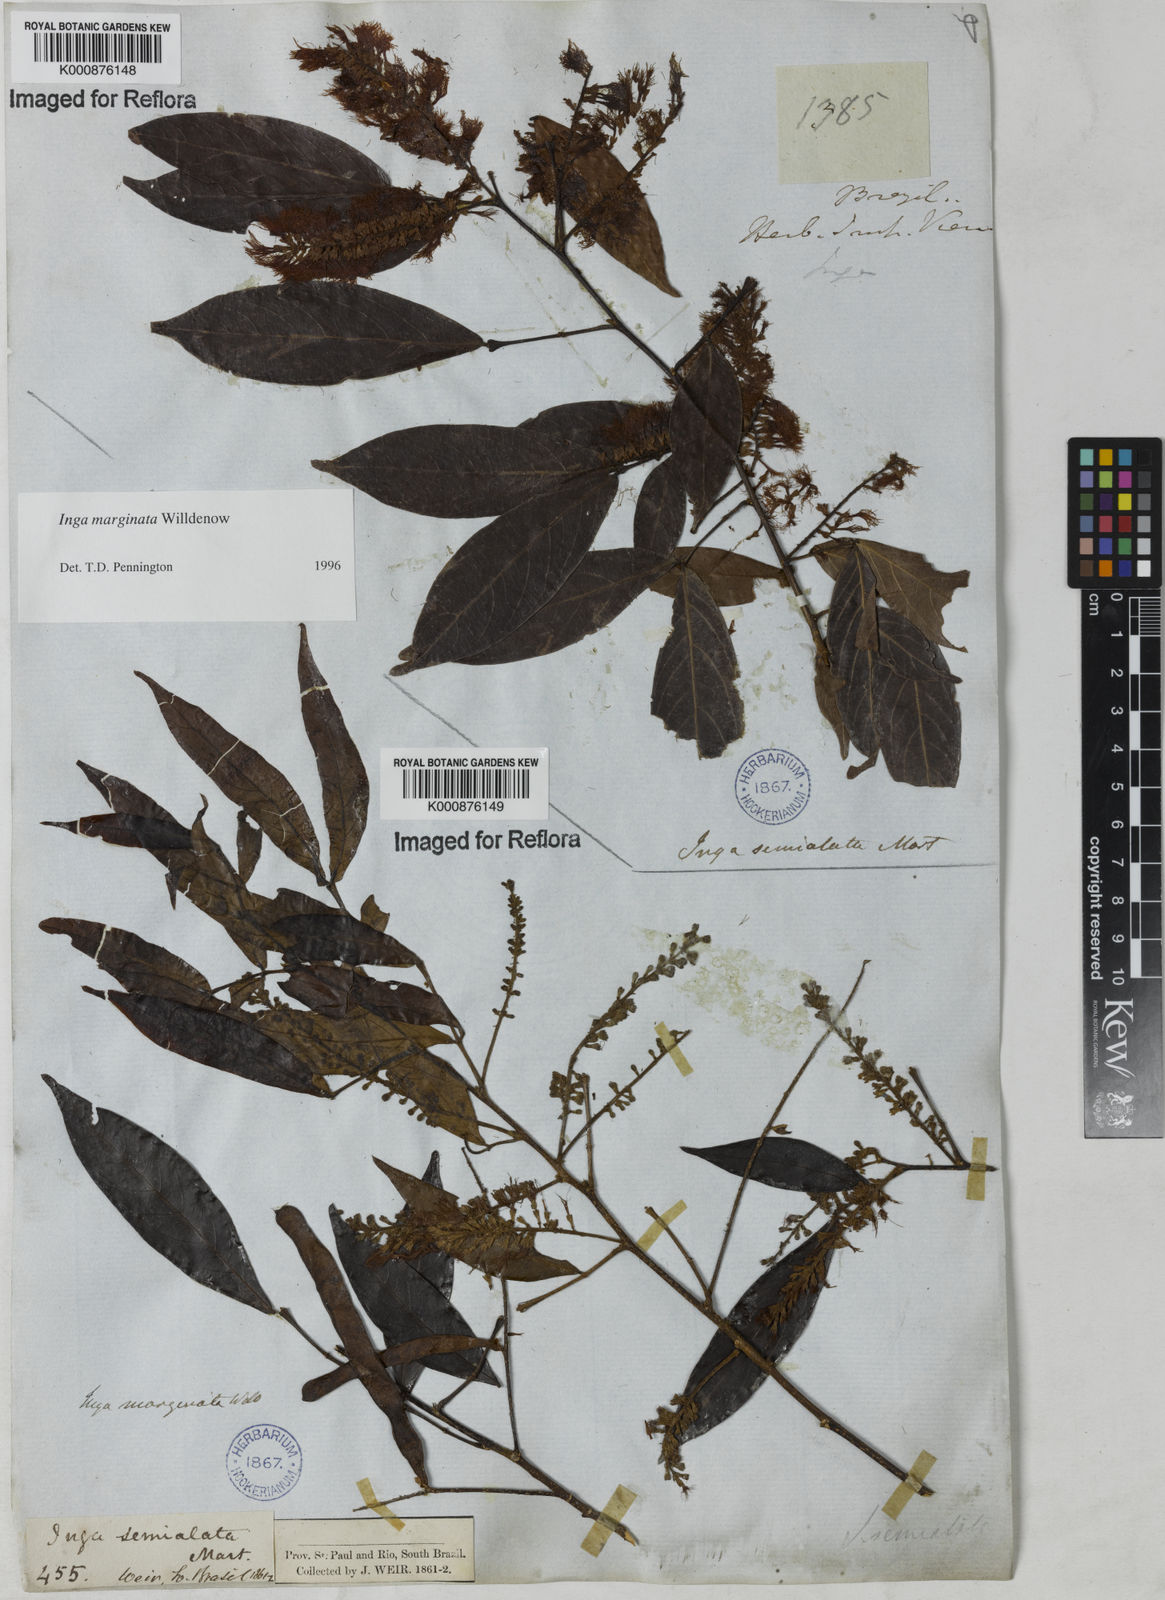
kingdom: Plantae
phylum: Tracheophyta
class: Magnoliopsida
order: Fabales
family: Fabaceae
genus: Inga
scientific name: Inga marginata
